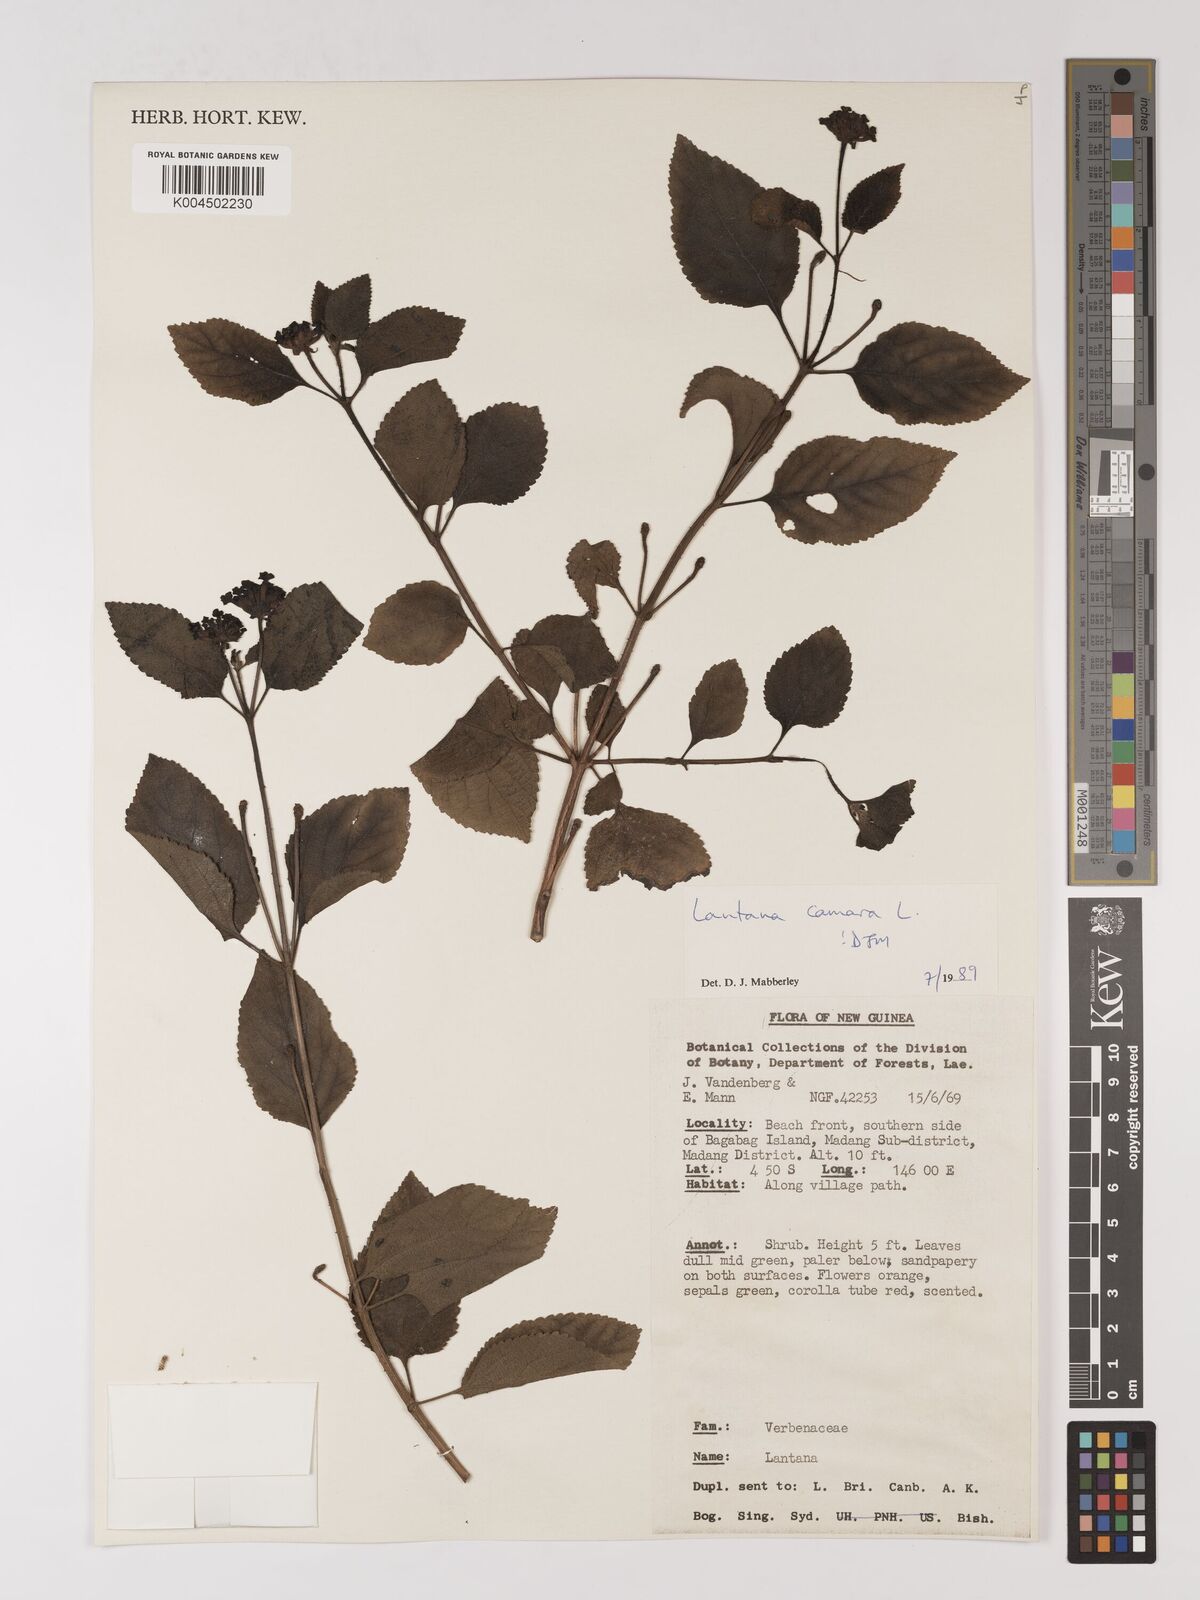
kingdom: Plantae
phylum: Tracheophyta
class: Magnoliopsida
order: Lamiales
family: Verbenaceae
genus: Lantana
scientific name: Lantana camara
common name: Lantana
